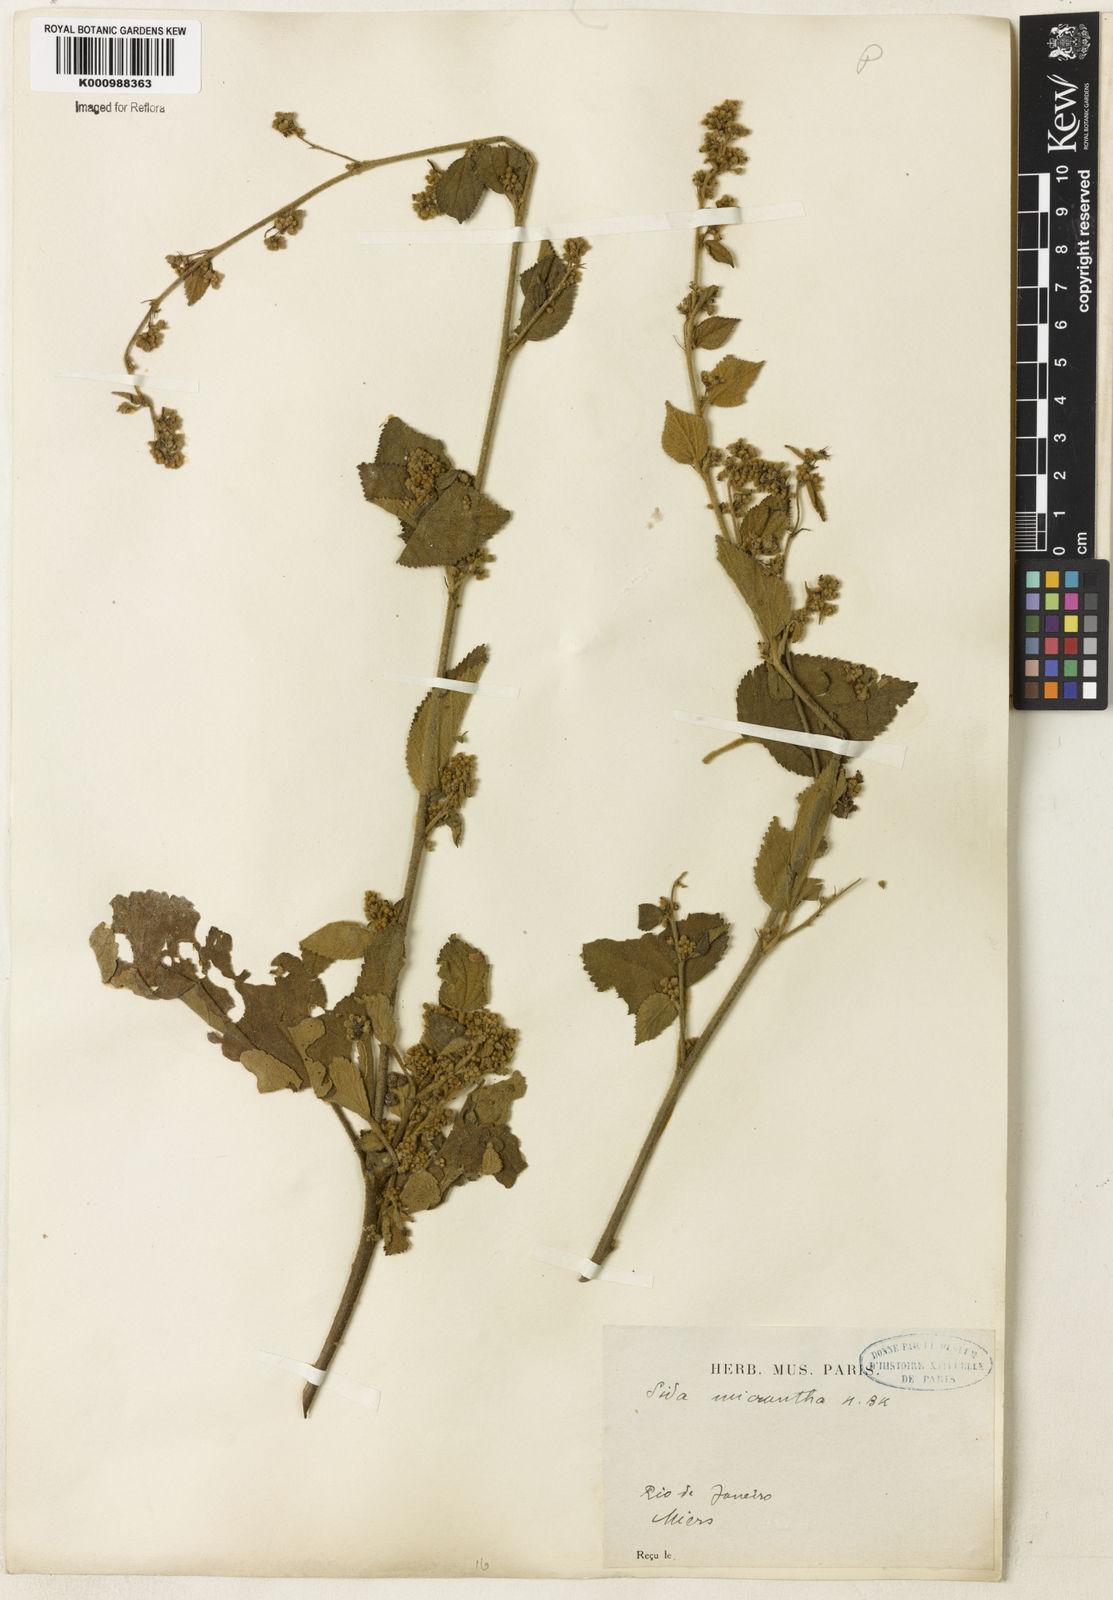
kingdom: Plantae
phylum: Tracheophyta
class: Magnoliopsida
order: Malvales
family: Malvaceae
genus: Sidastrum
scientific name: Sidastrum micranthum
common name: Dainty sandmallow
